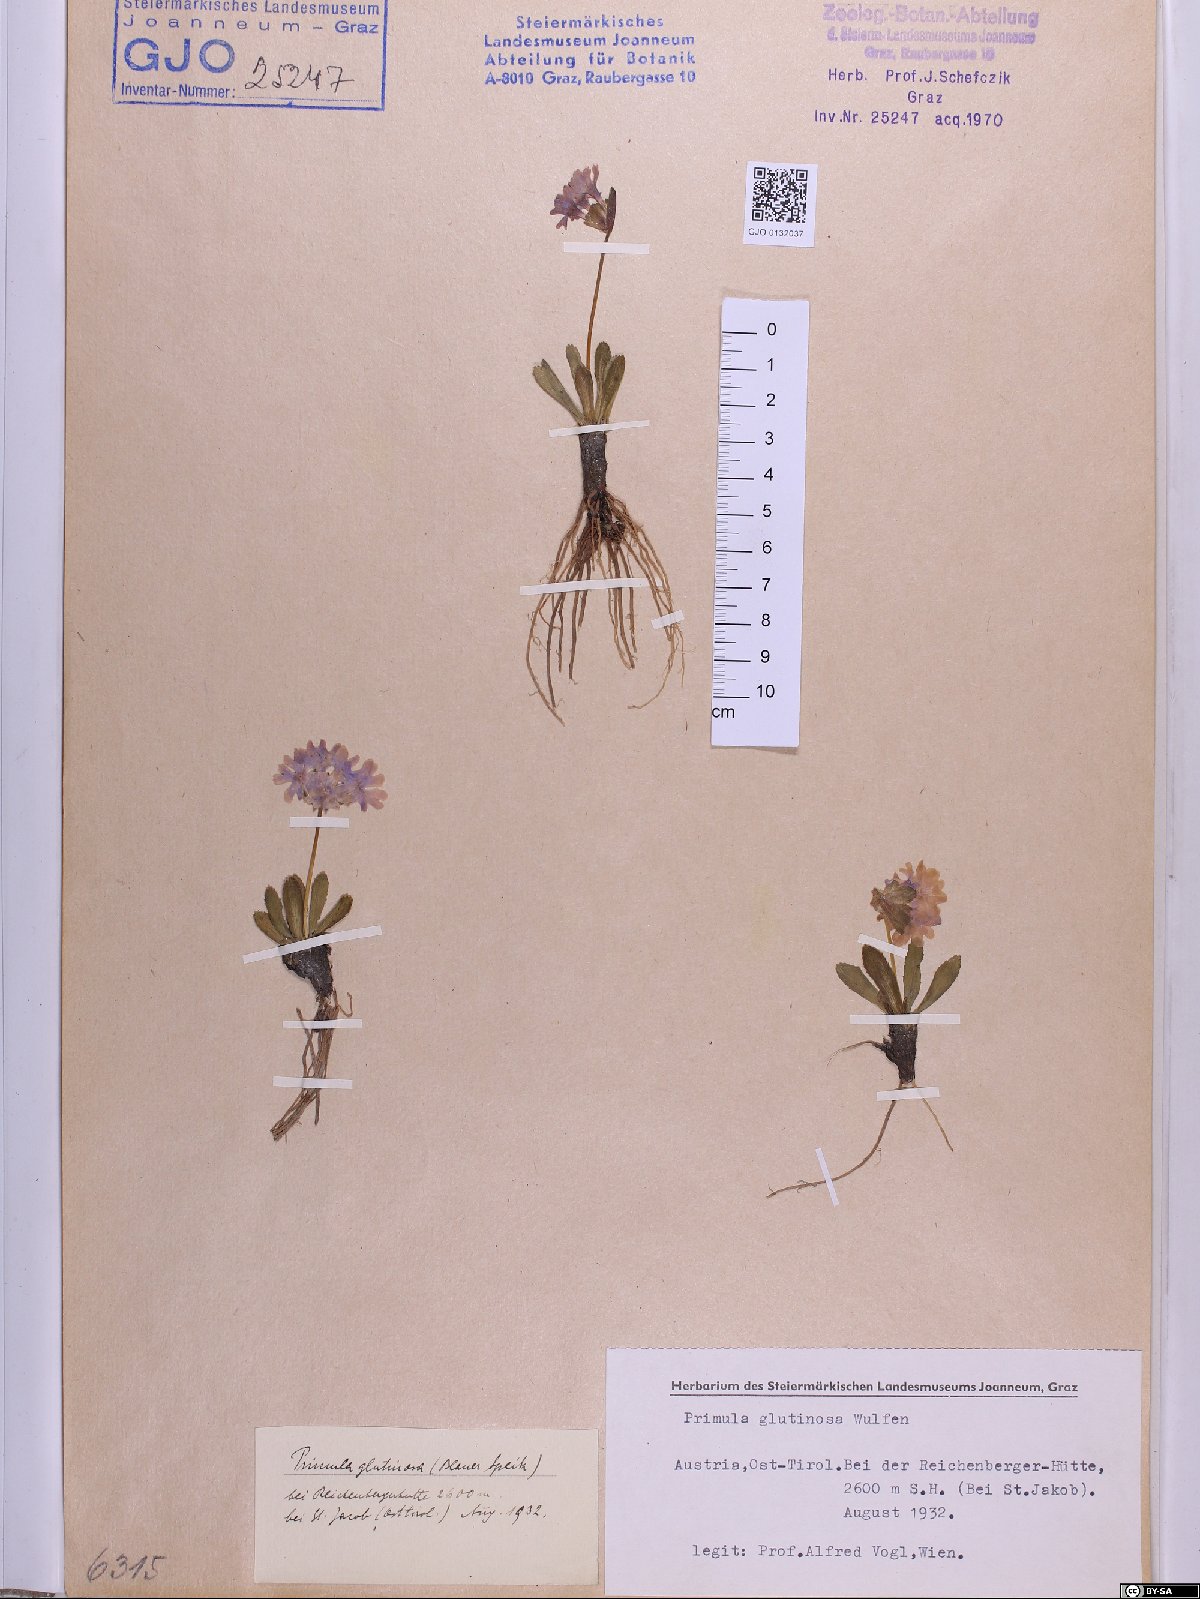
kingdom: Plantae
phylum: Tracheophyta
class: Magnoliopsida
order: Ericales
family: Primulaceae
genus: Primula
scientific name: Primula glutinosa
